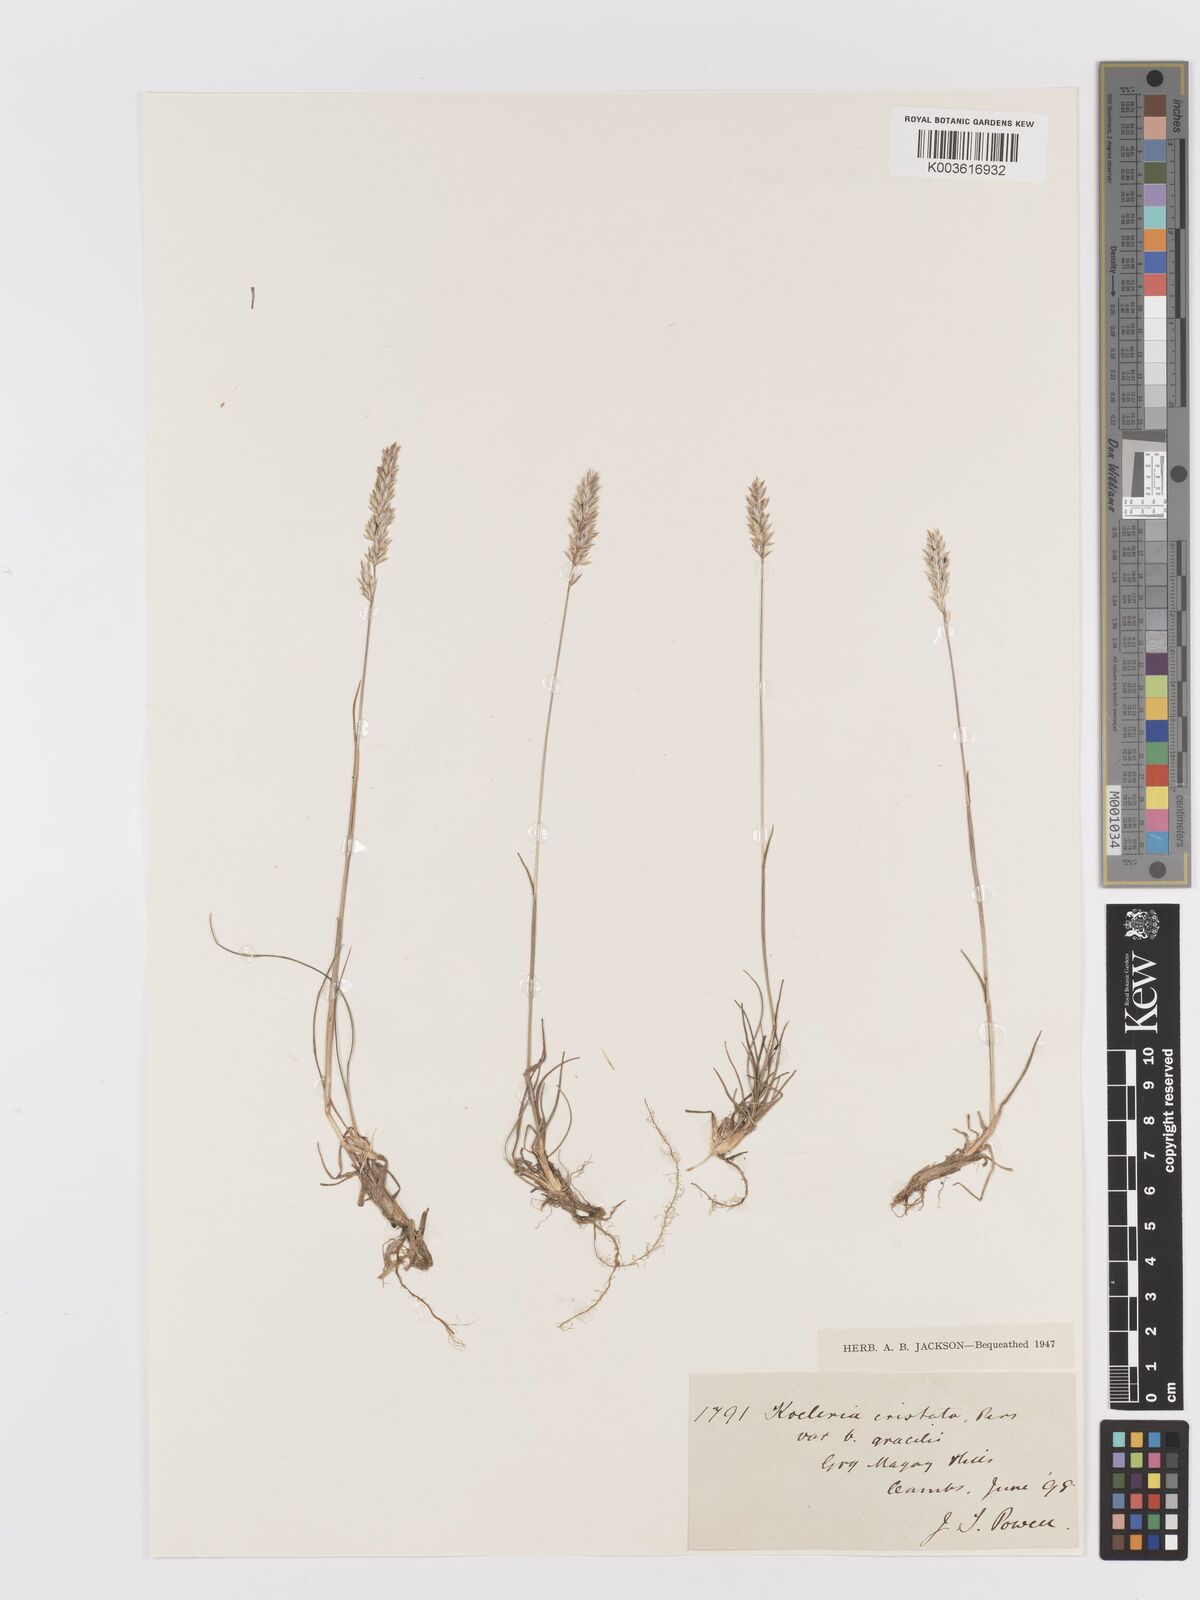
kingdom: Plantae
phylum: Tracheophyta
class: Liliopsida
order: Poales
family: Poaceae
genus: Koeleria
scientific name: Koeleria macrantha
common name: Crested hair-grass
